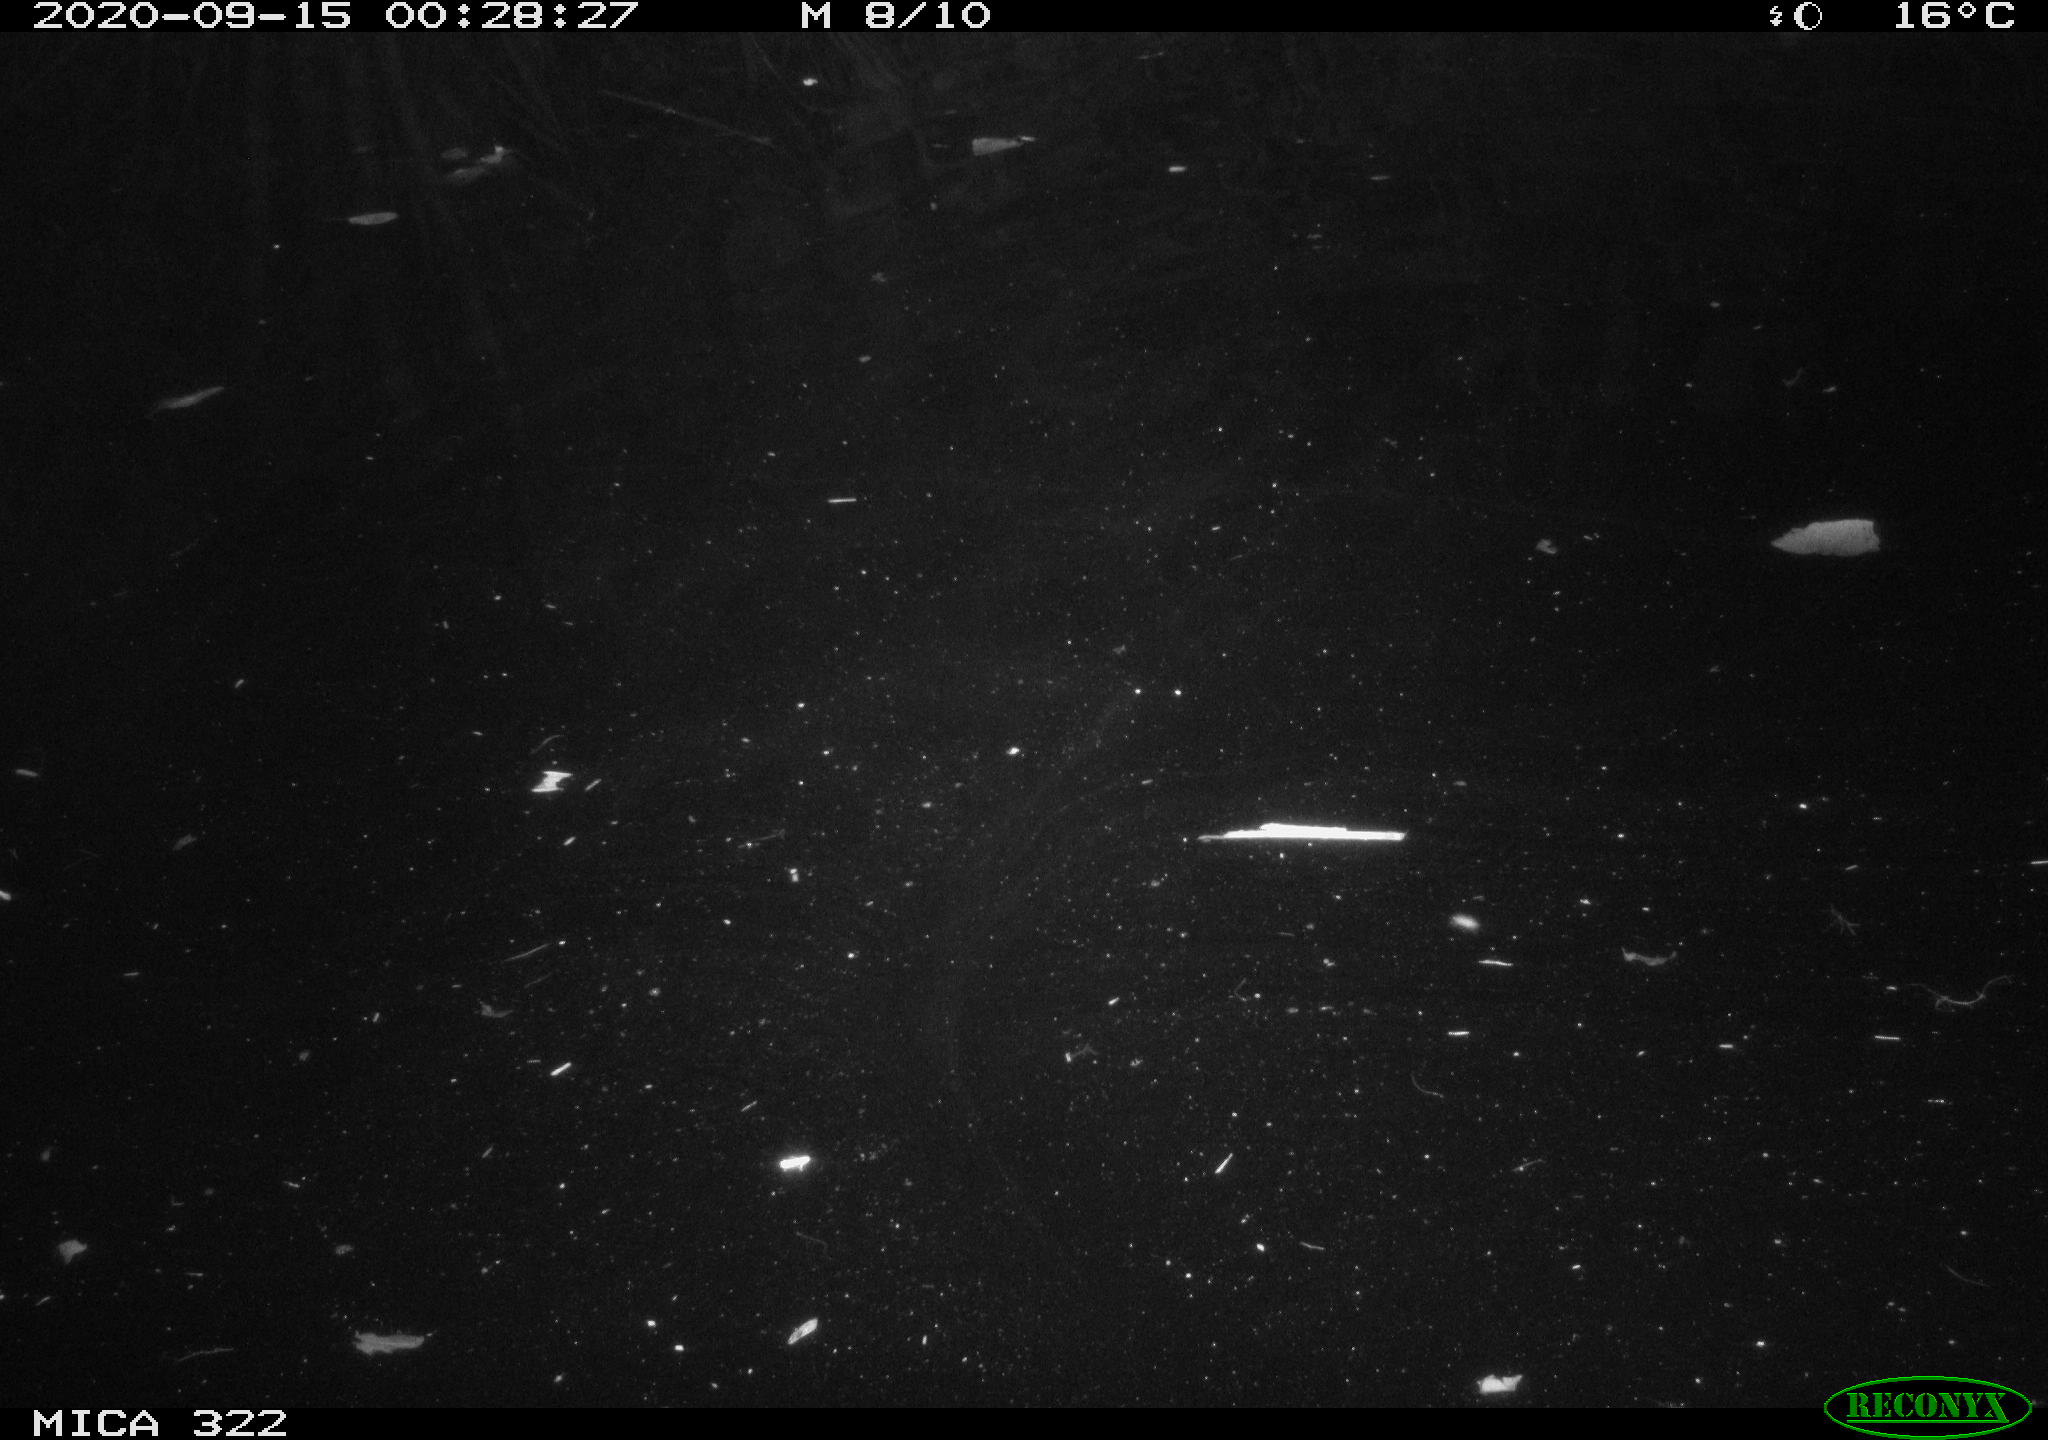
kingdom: Animalia
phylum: Chordata
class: Mammalia
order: Rodentia
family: Muridae
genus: Rattus
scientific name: Rattus norvegicus
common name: Brown rat
